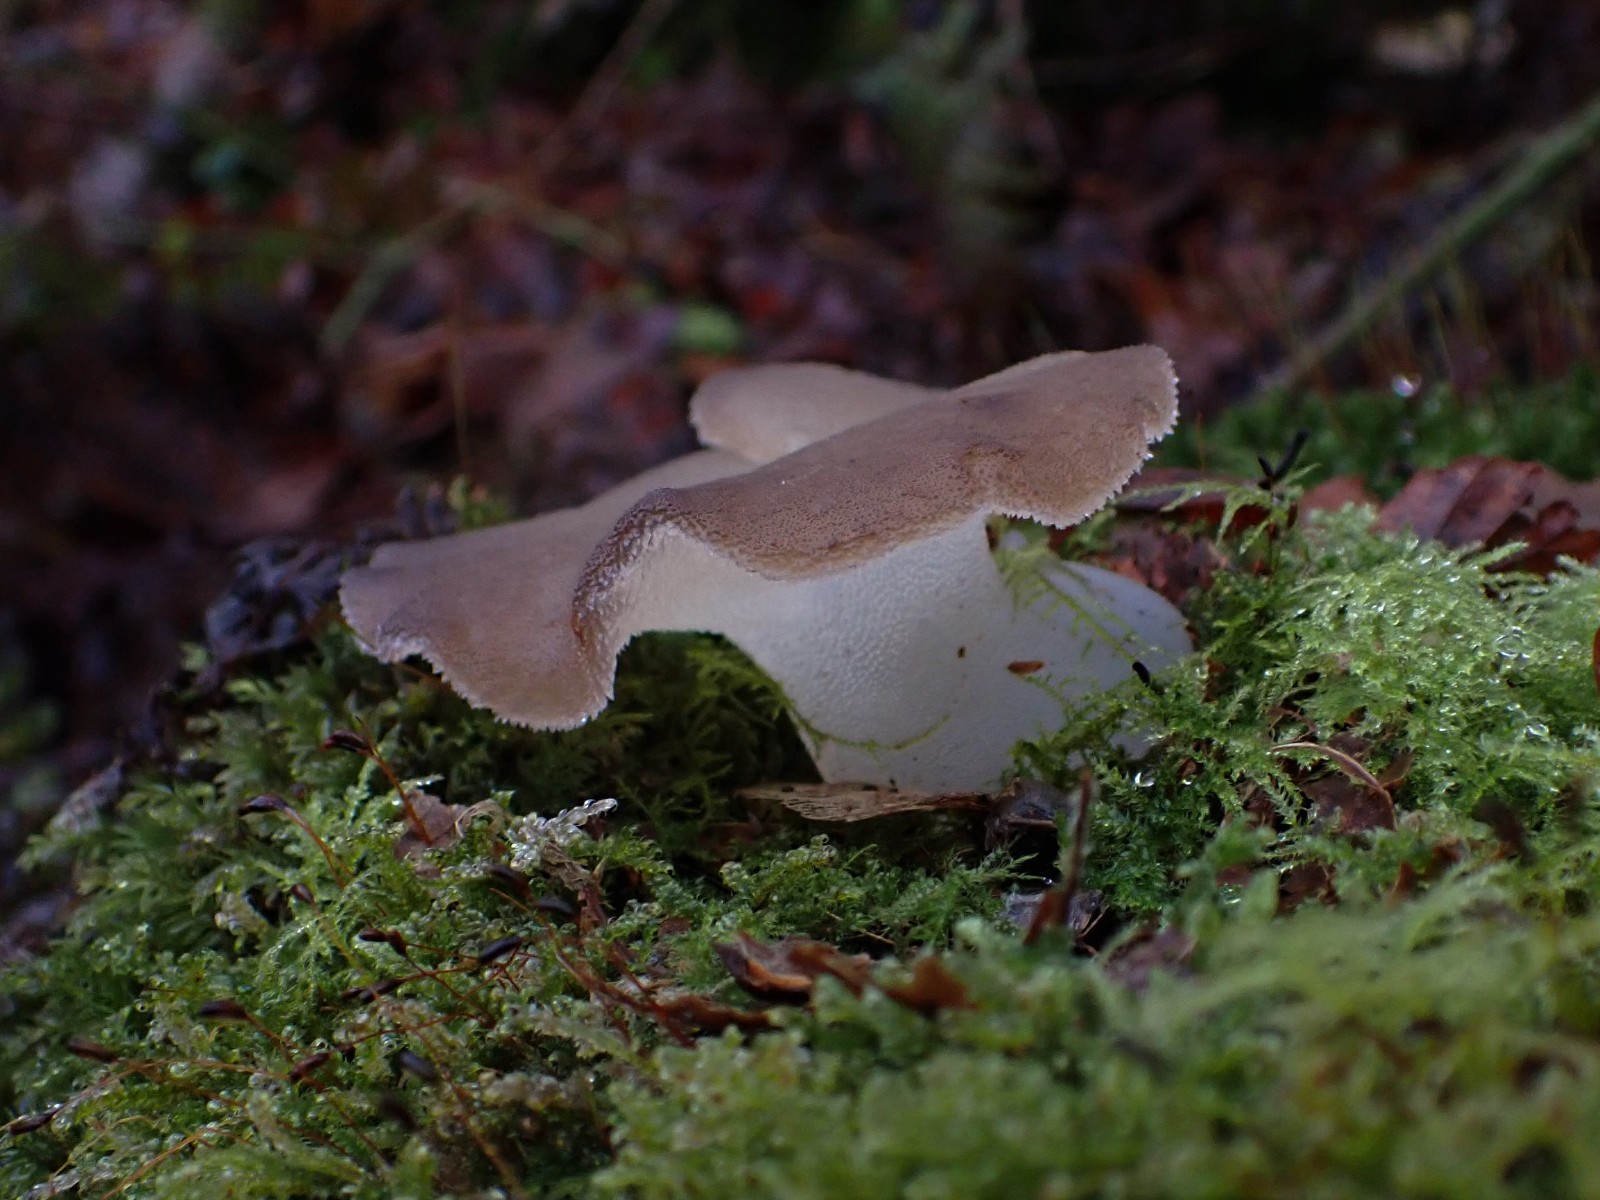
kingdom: Fungi
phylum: Basidiomycota
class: Agaricomycetes
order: Auriculariales
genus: Pseudohydnum
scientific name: Pseudohydnum gelatinosum
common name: bævretand
